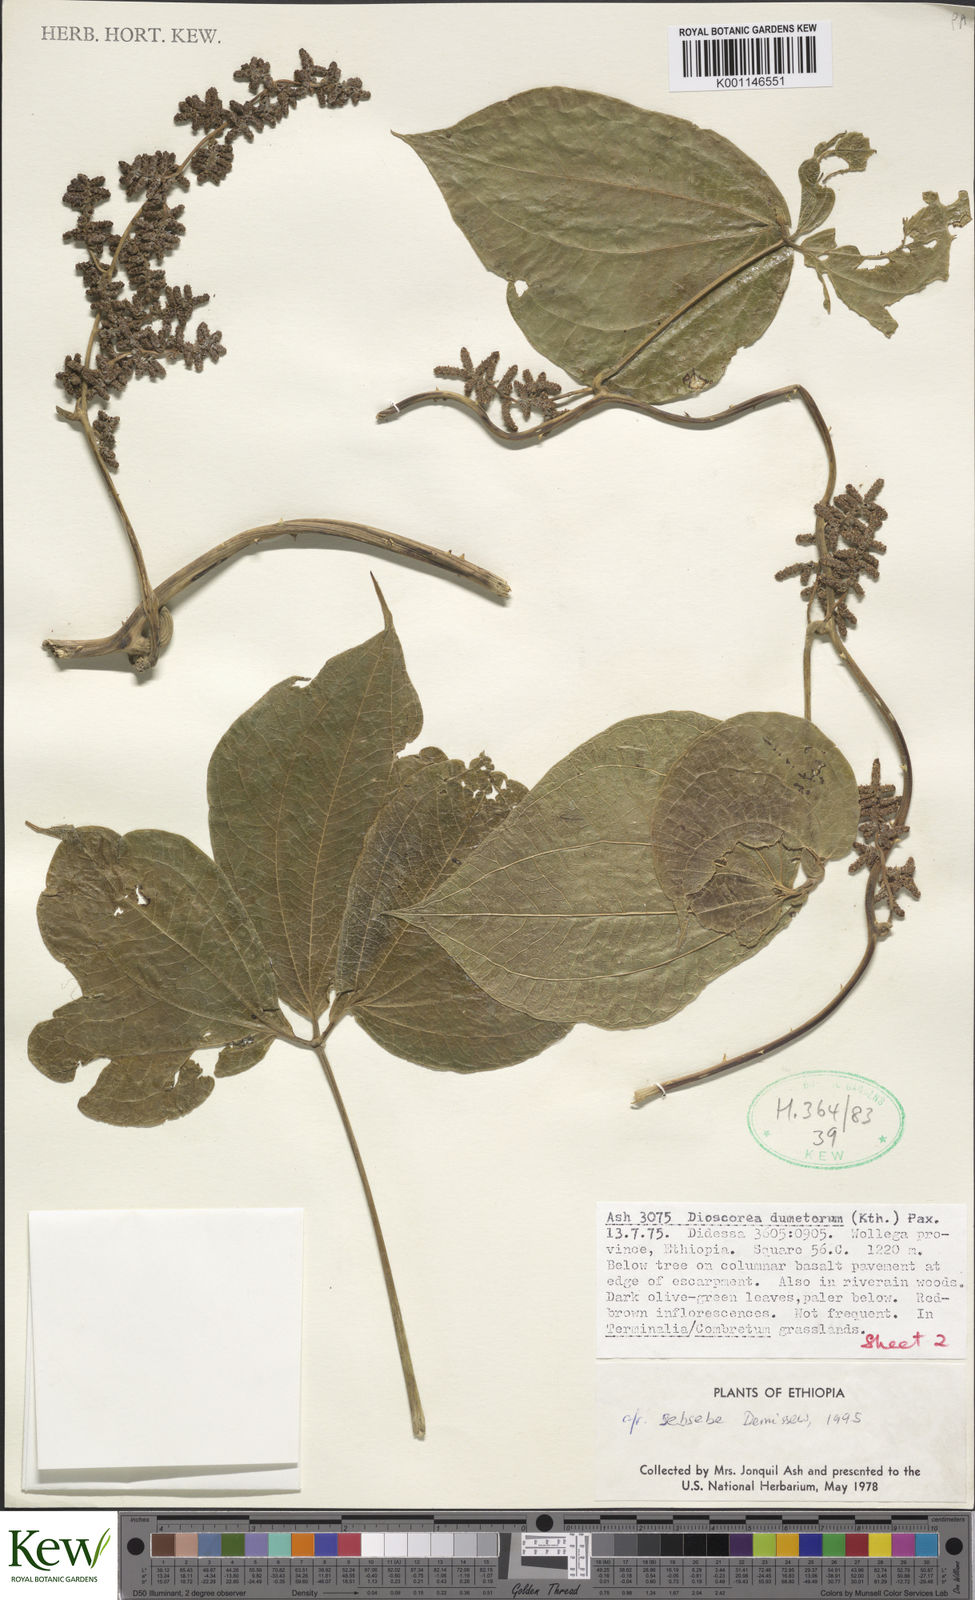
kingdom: Plantae
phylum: Tracheophyta
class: Liliopsida
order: Dioscoreales
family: Dioscoreaceae
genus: Dioscorea
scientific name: Dioscorea dumetorum
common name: African bitter yam
